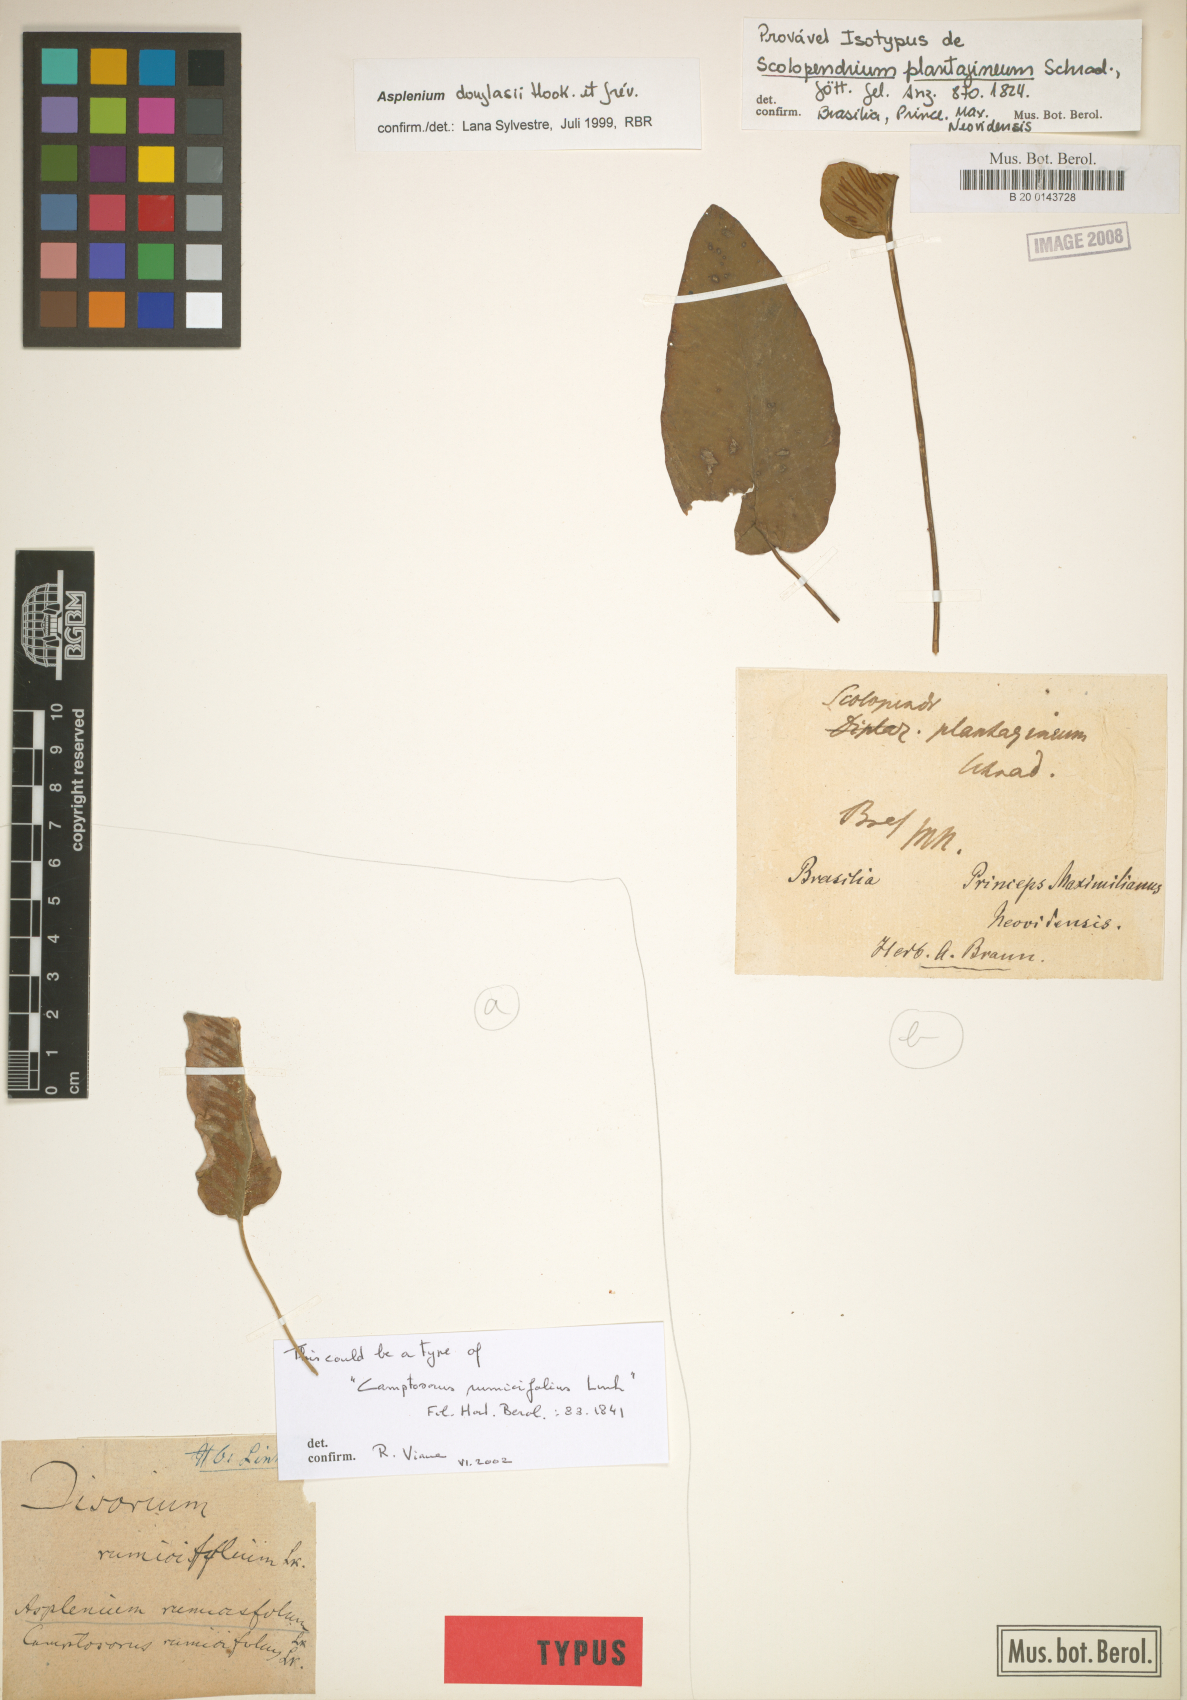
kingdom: Plantae
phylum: Tracheophyta
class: Polypodiopsida
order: Polypodiales
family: Aspleniaceae
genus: Asplenium
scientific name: Asplenium douglasii
